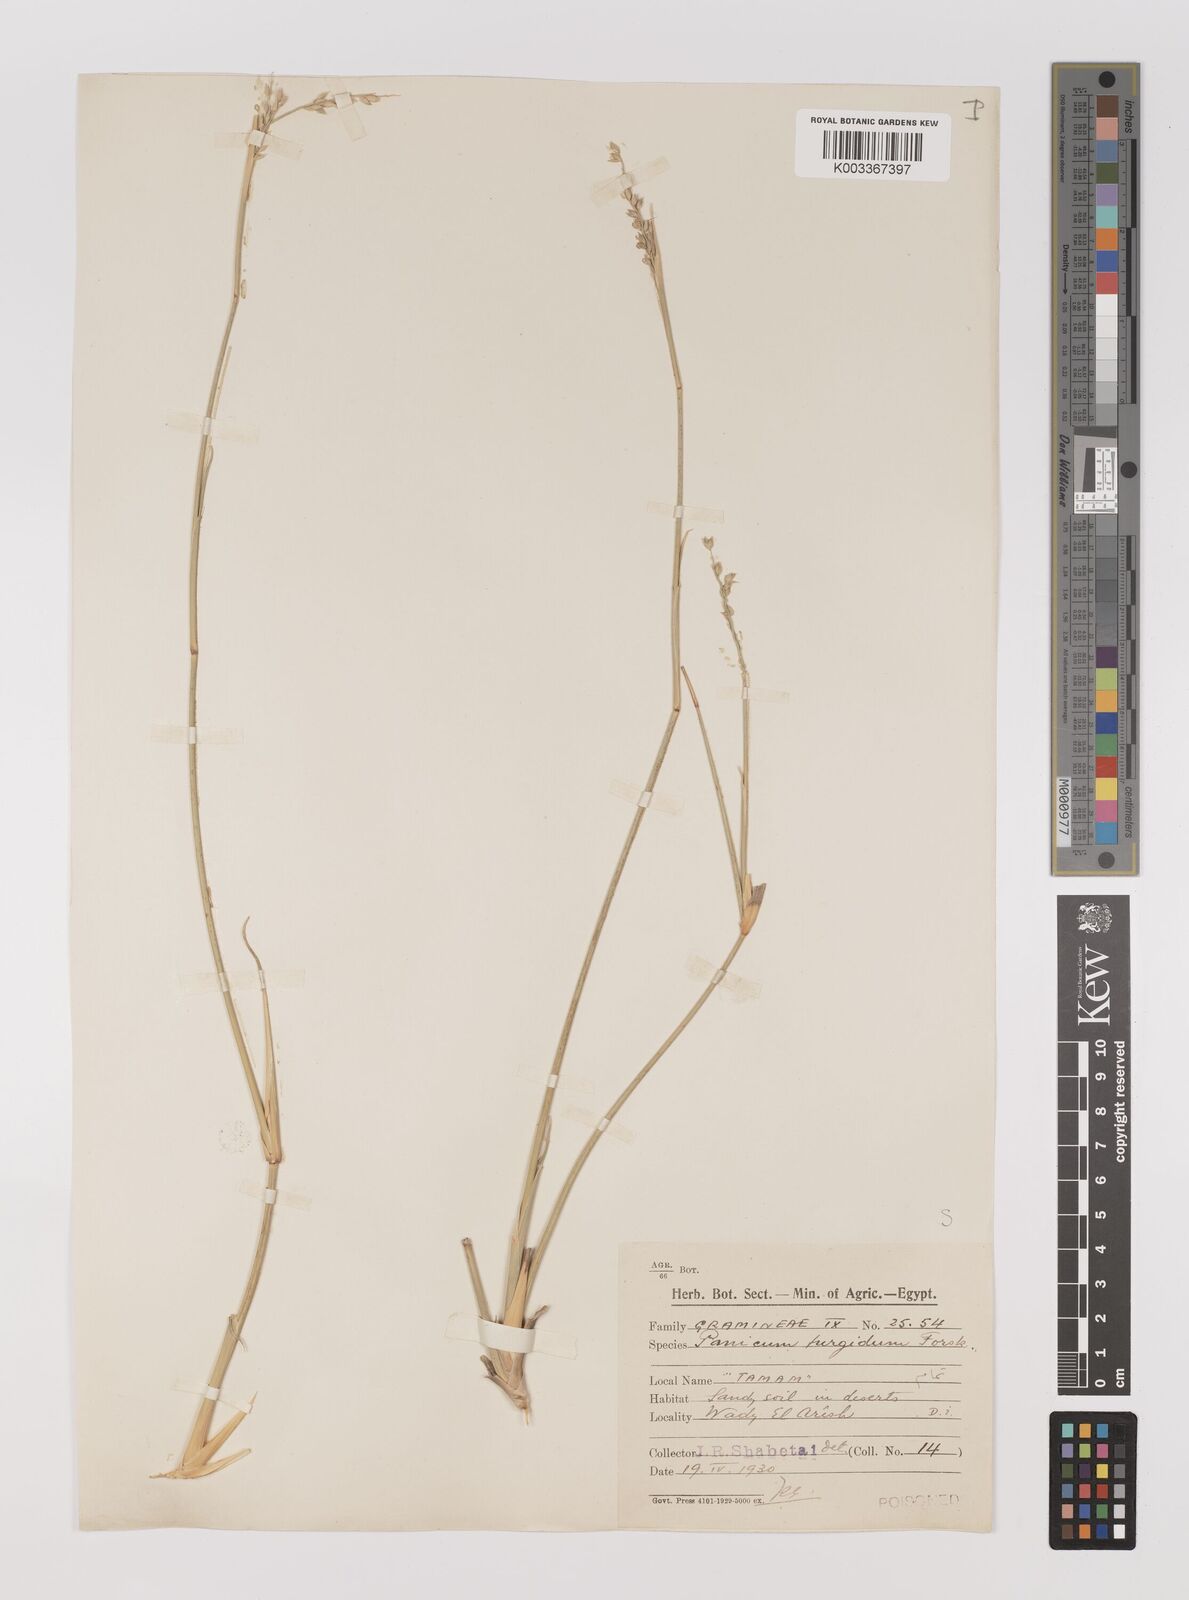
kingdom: Plantae
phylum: Tracheophyta
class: Liliopsida
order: Poales
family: Poaceae
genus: Panicum
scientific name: Panicum turgidum
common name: Desert grass
